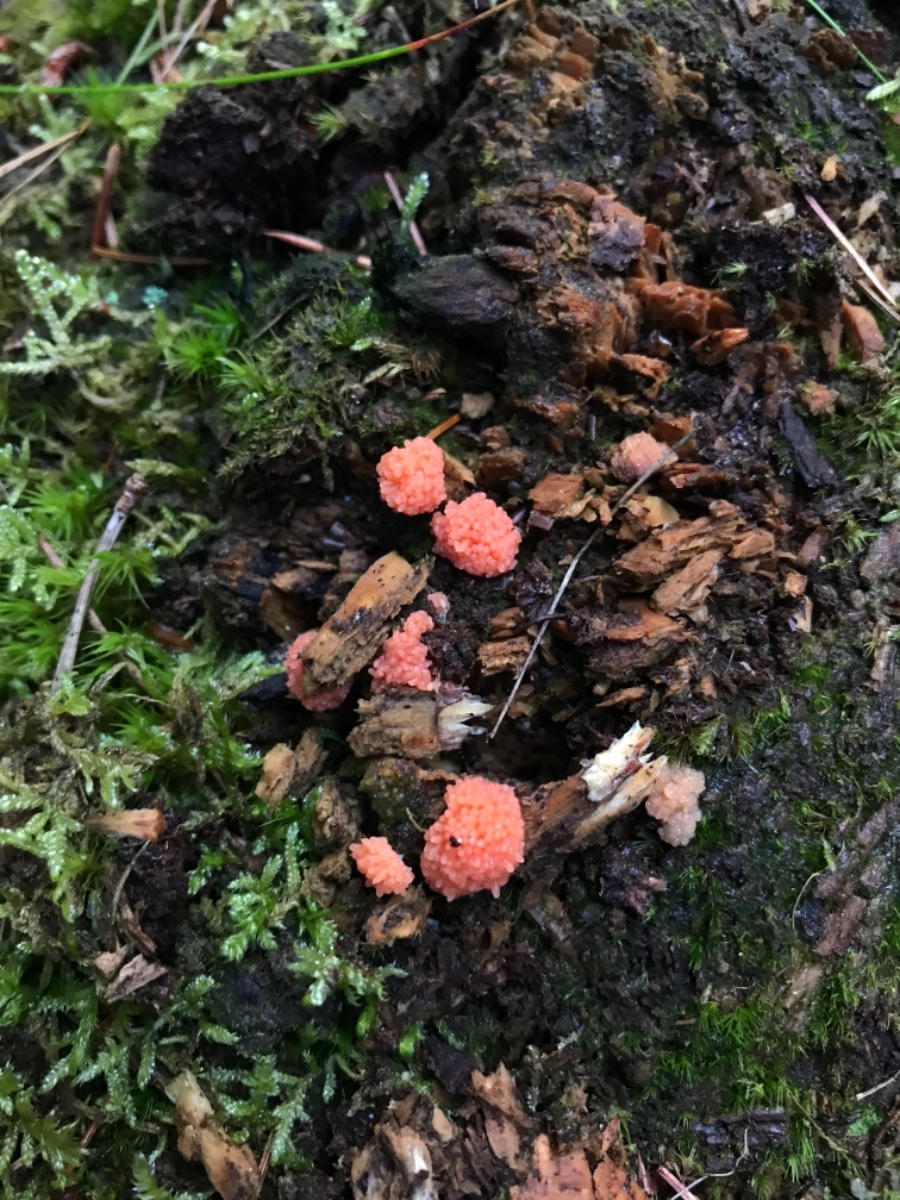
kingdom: Protozoa
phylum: Mycetozoa
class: Myxomycetes
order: Cribrariales
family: Tubiferaceae
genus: Tubifera
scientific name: Tubifera ferruginosa
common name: kanel-støvrør
